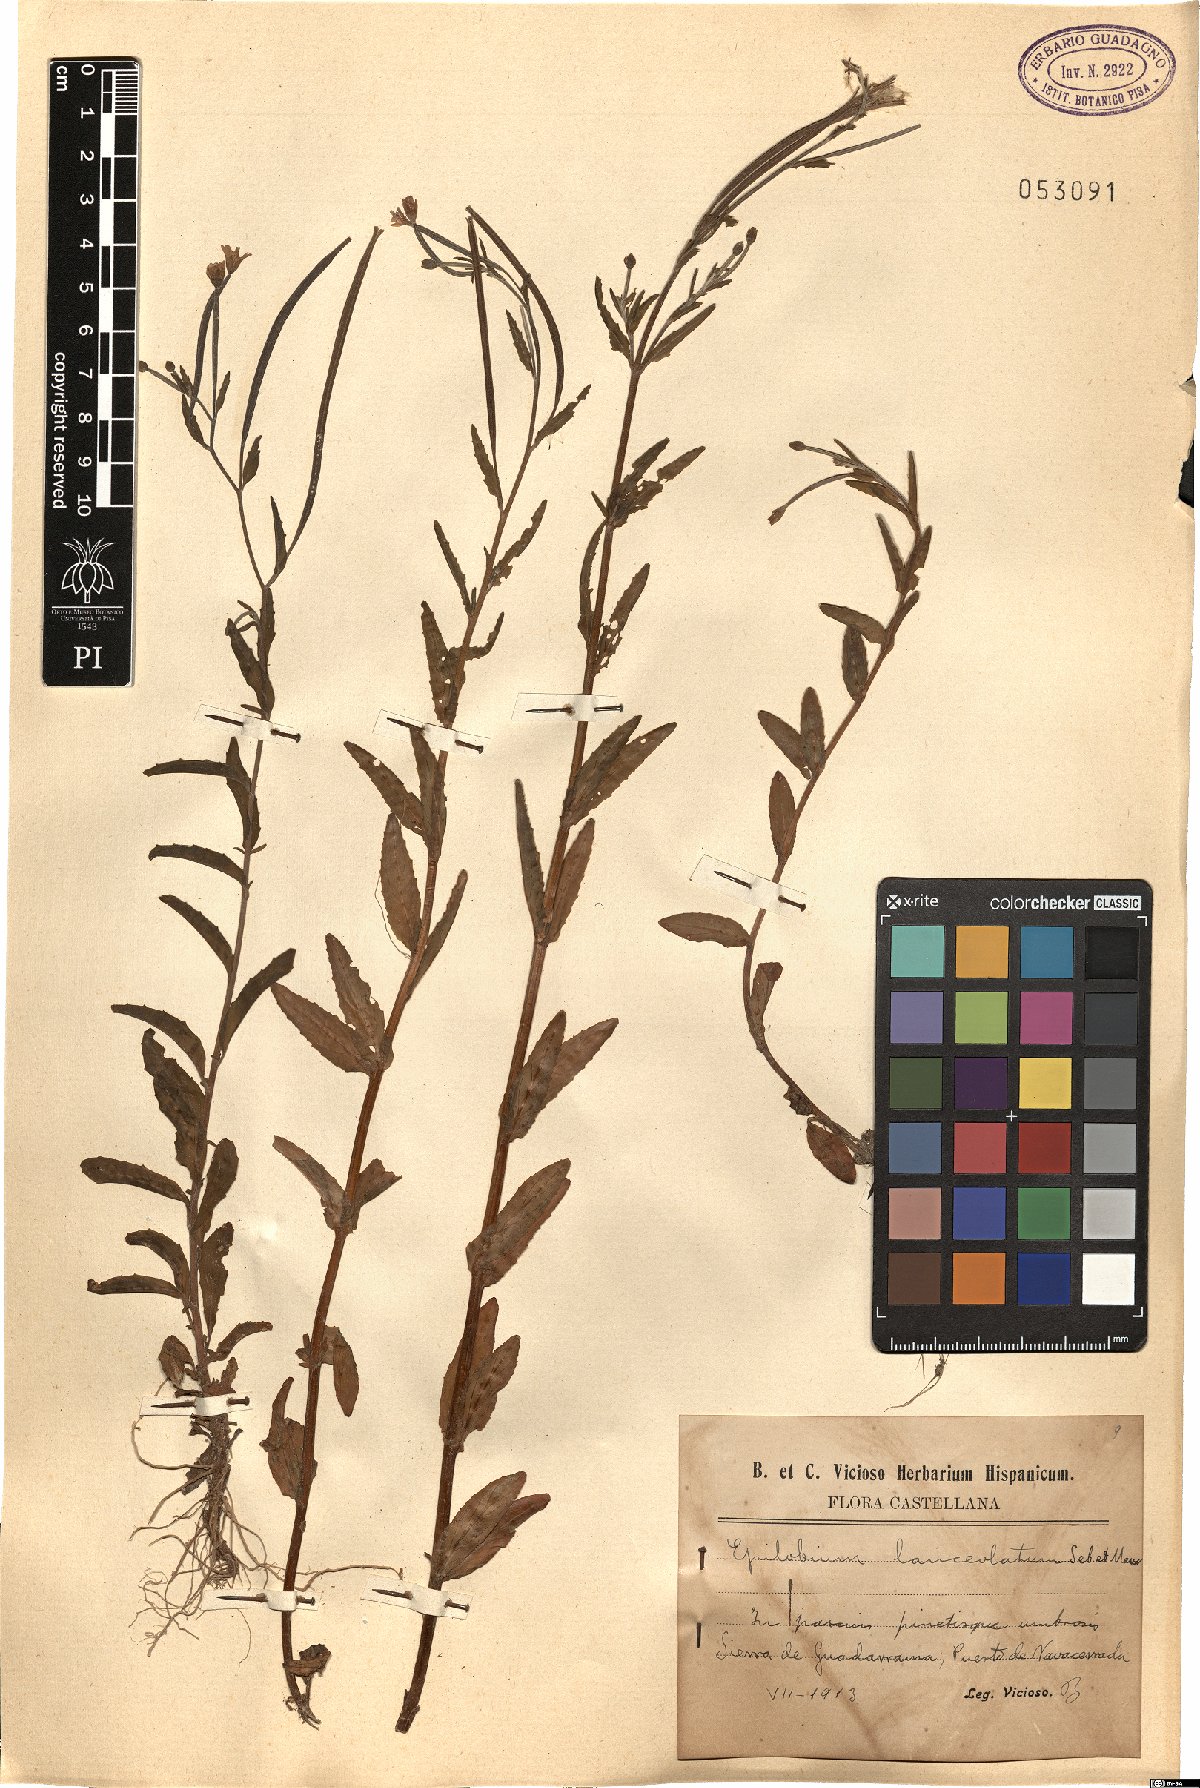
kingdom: Plantae
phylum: Tracheophyta
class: Magnoliopsida
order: Myrtales
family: Onagraceae
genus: Epilobium
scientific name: Epilobium lanceolatum
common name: Spear-leaved willowherb
